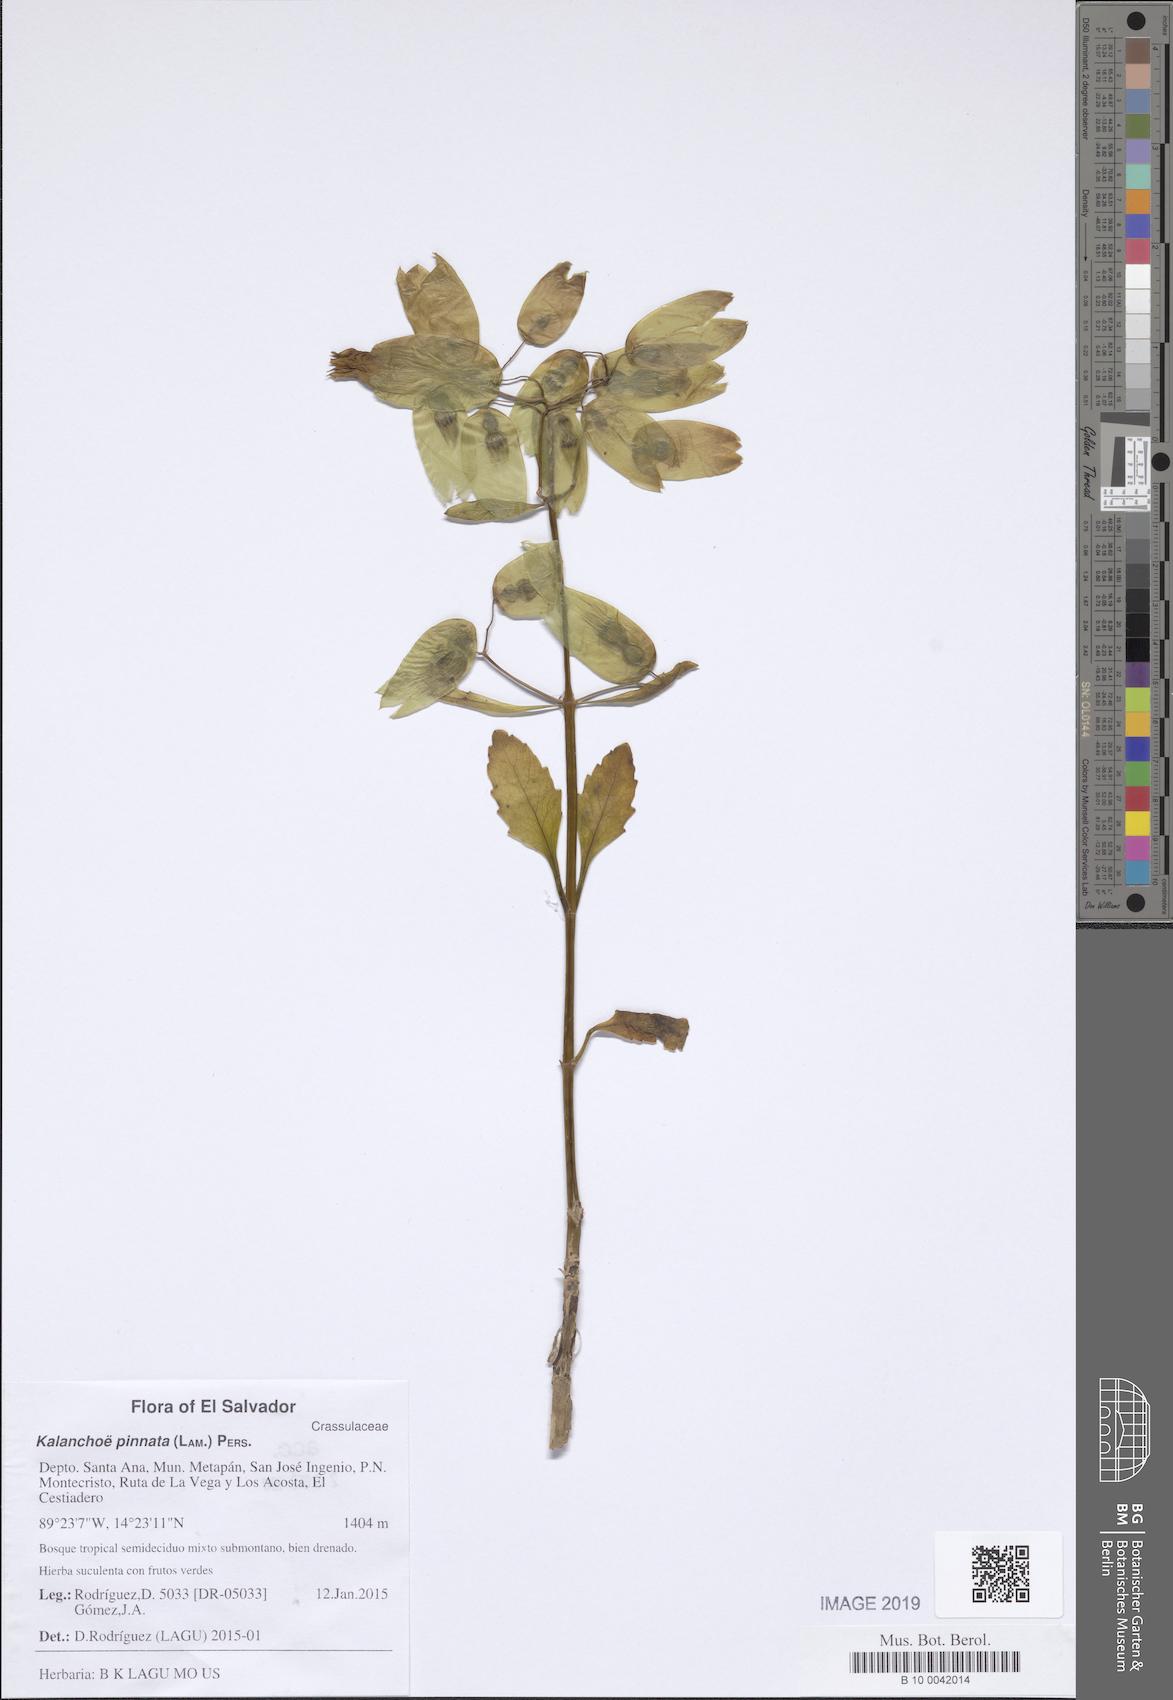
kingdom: Plantae
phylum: Tracheophyta
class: Magnoliopsida
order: Saxifragales
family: Crassulaceae
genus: Kalanchoe
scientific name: Kalanchoe pinnata
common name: Cathedral bells
